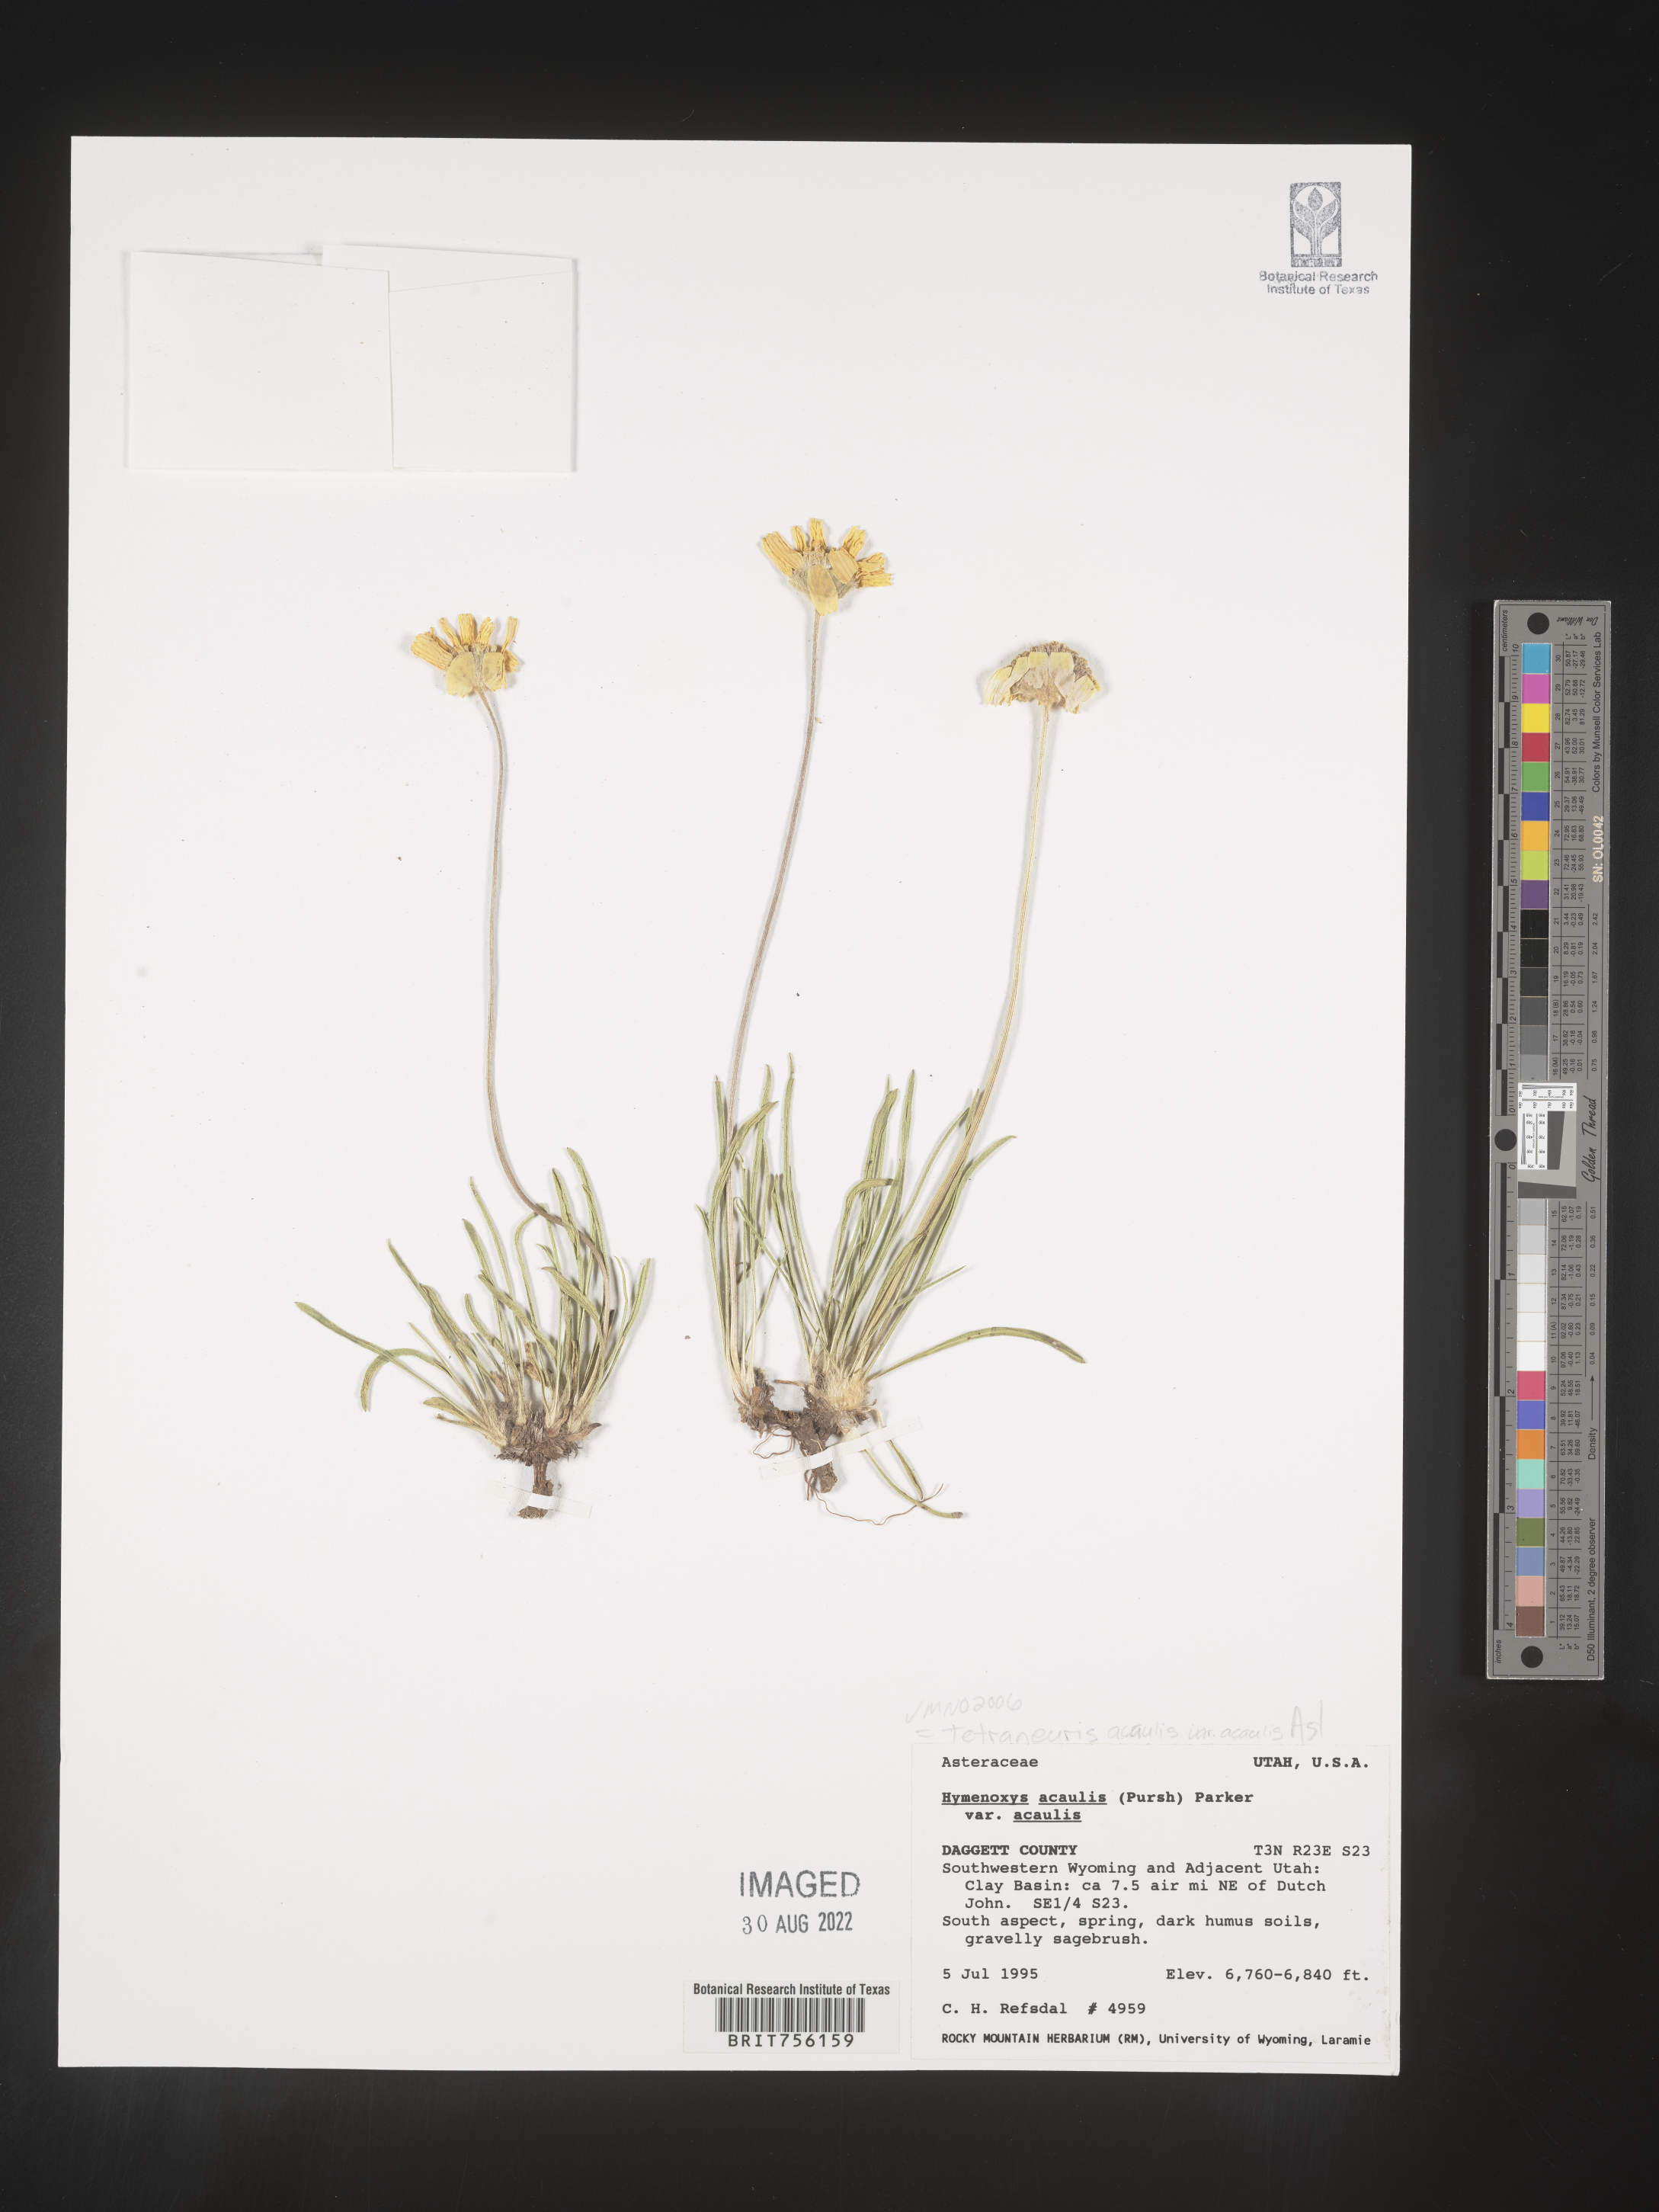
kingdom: Plantae
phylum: Tracheophyta
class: Magnoliopsida
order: Asterales
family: Asteraceae
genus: Tetraneuris
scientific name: Tetraneuris acaulis
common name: Butte marigold
